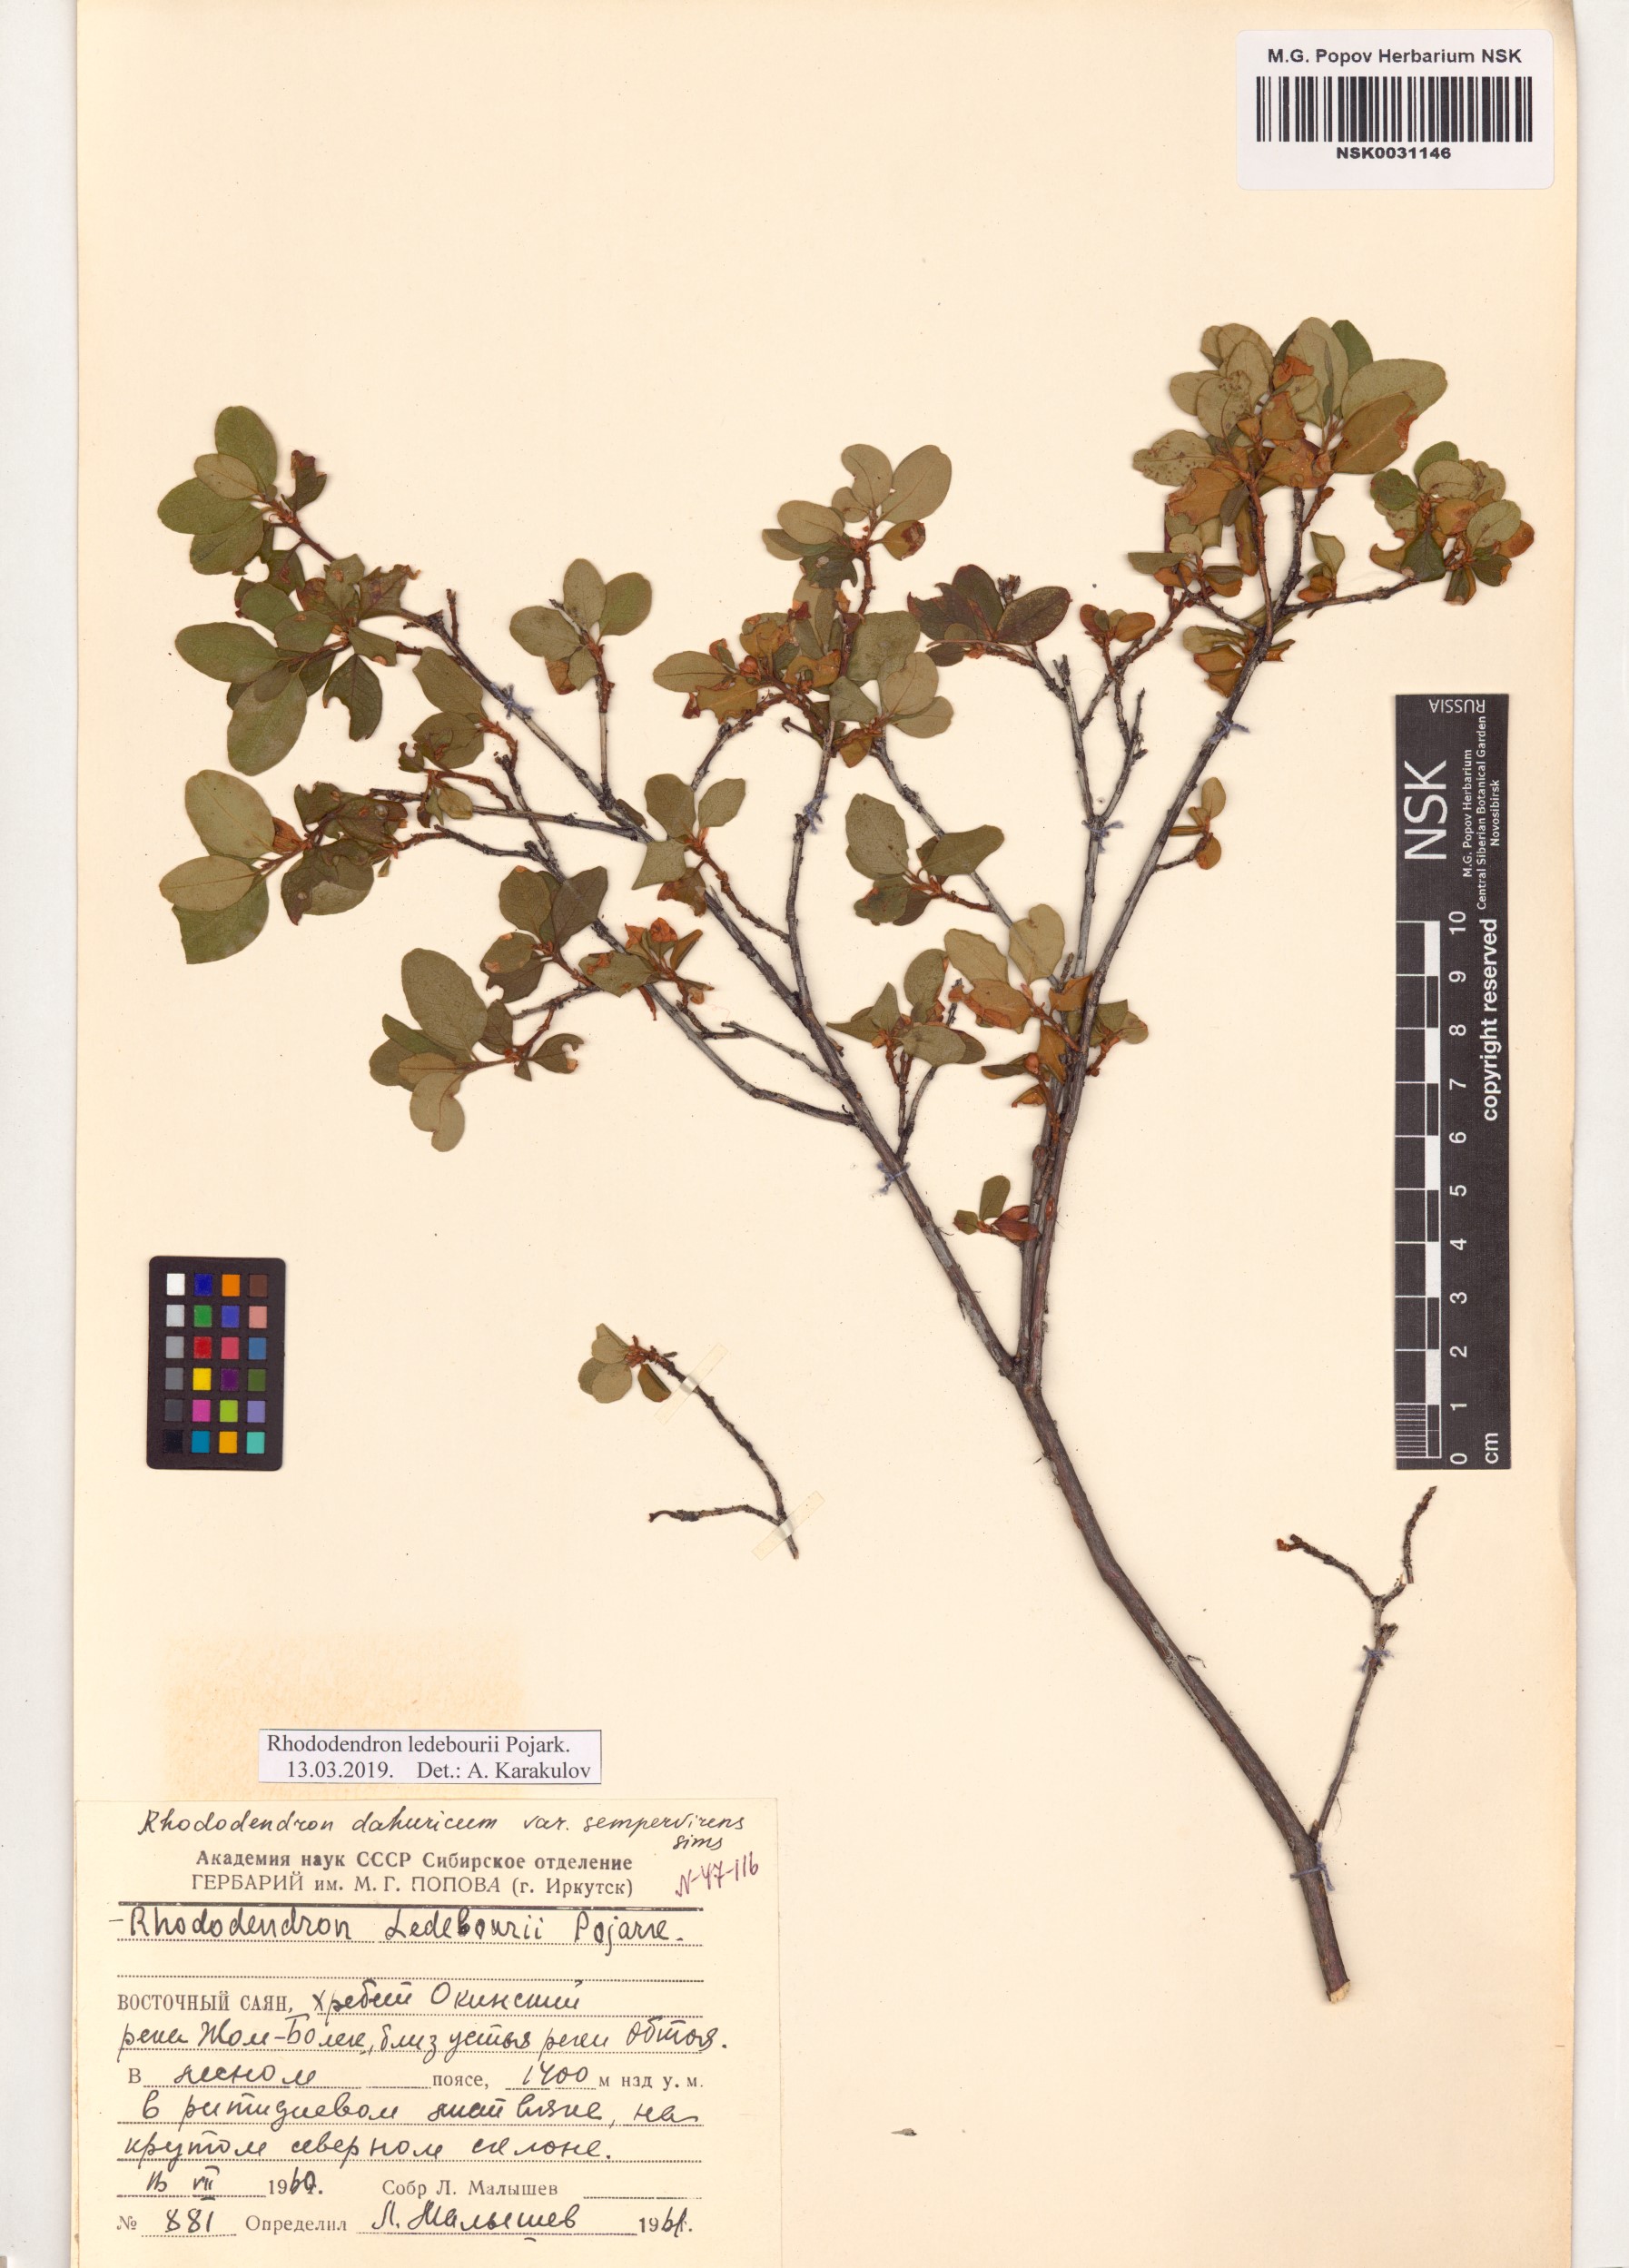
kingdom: Plantae
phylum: Tracheophyta
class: Magnoliopsida
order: Ericales
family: Ericaceae
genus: Rhododendron
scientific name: Rhododendron dauricum
